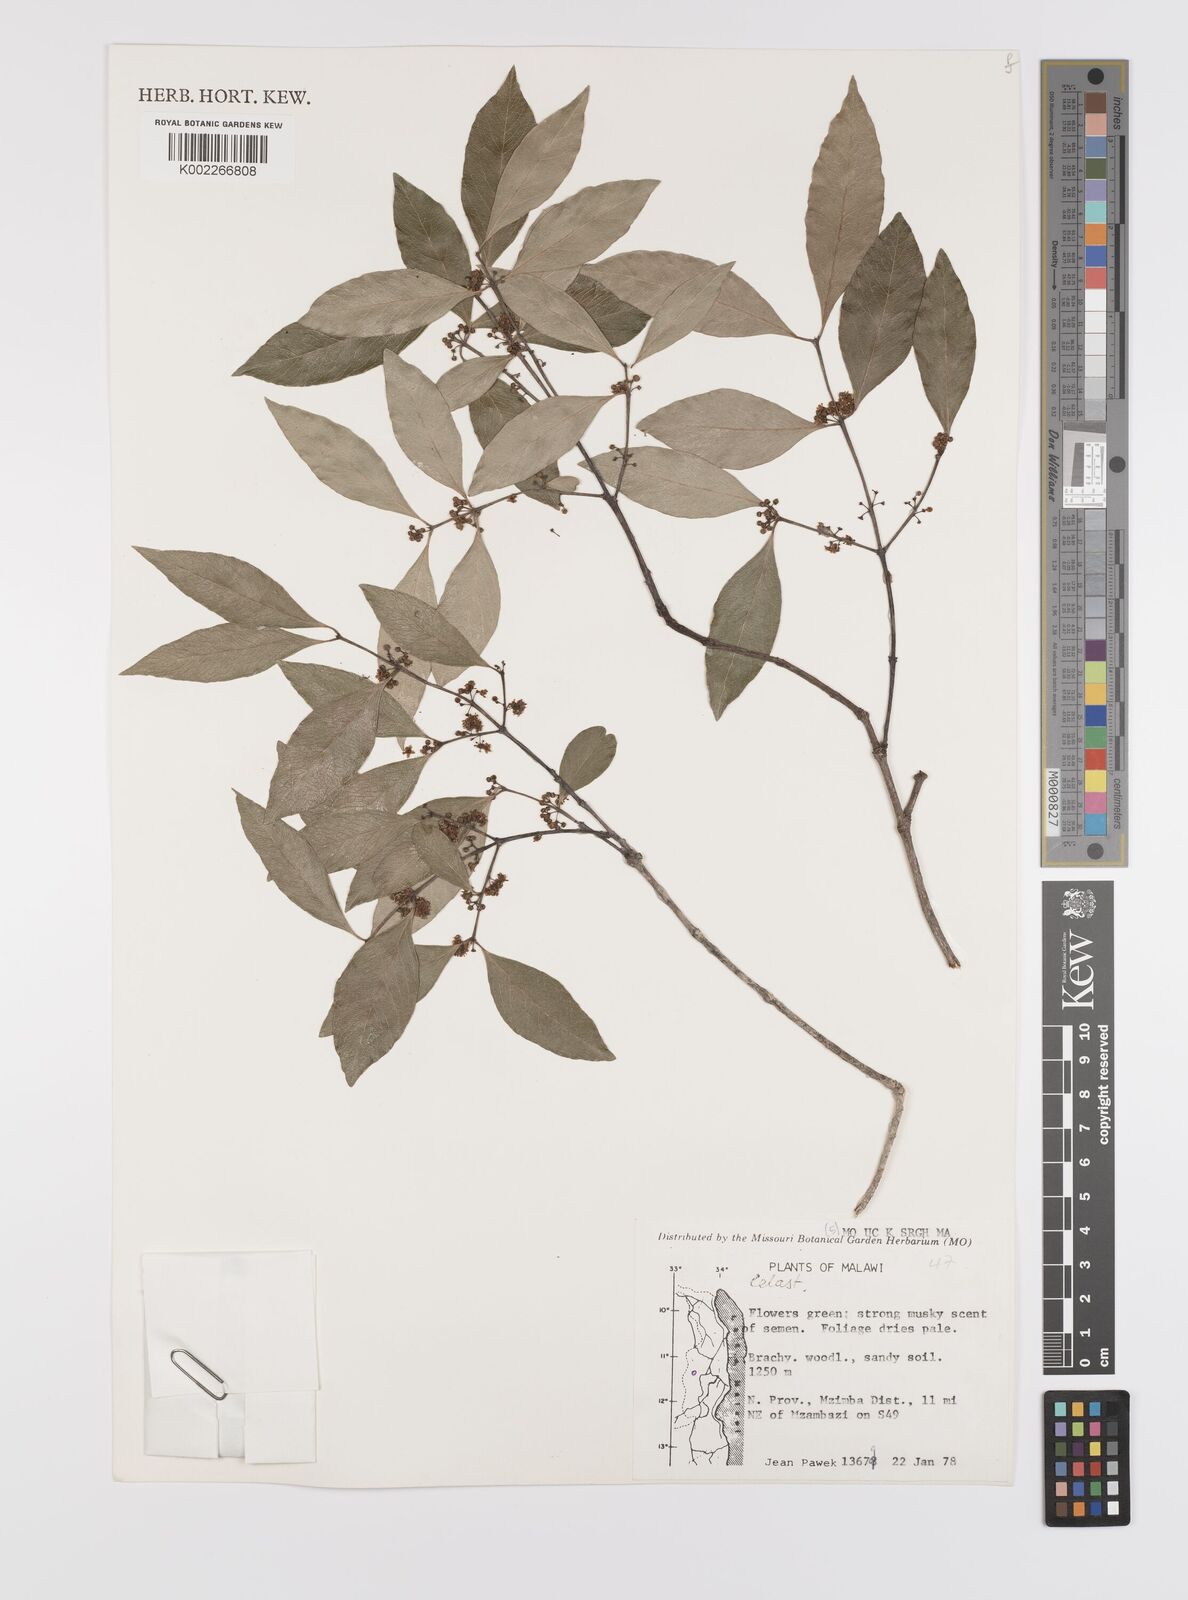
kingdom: Plantae
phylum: Tracheophyta
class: Magnoliopsida
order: Celastrales
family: Celastraceae
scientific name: Celastraceae
